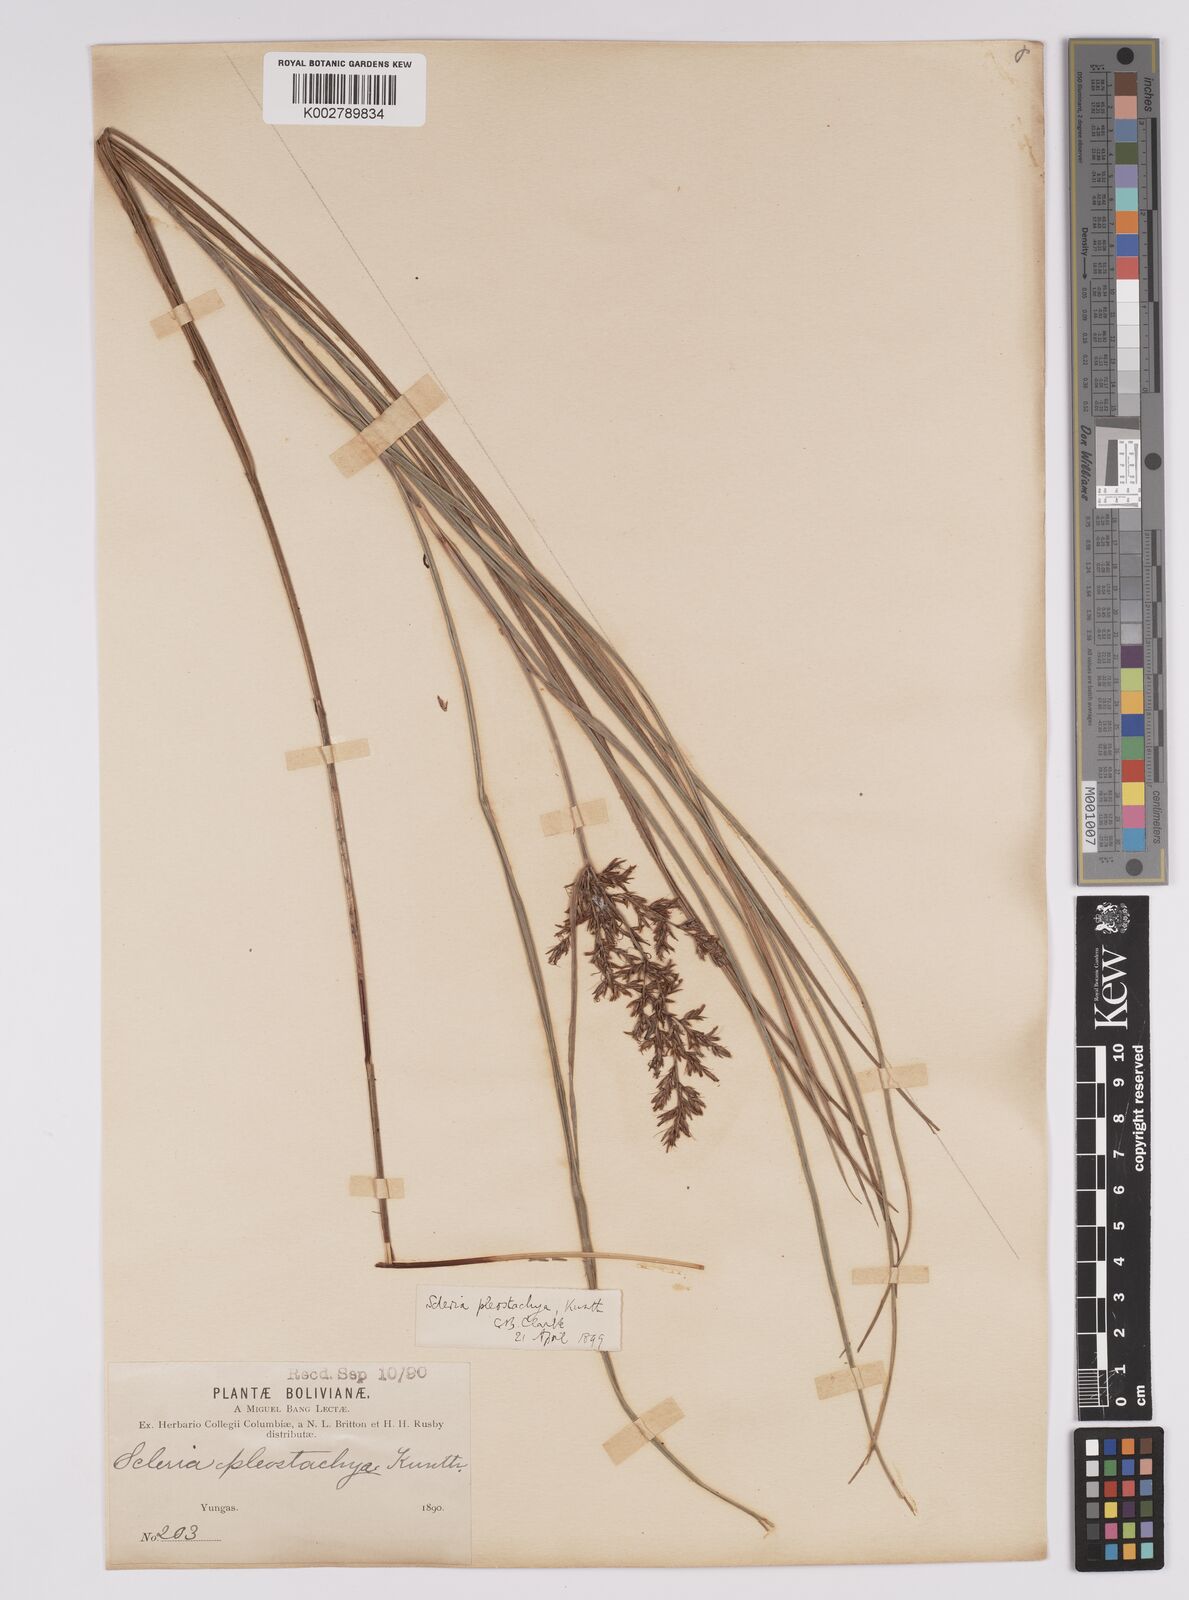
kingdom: Plantae
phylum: Tracheophyta
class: Liliopsida
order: Poales
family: Cyperaceae
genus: Scleria
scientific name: Scleria spicata
